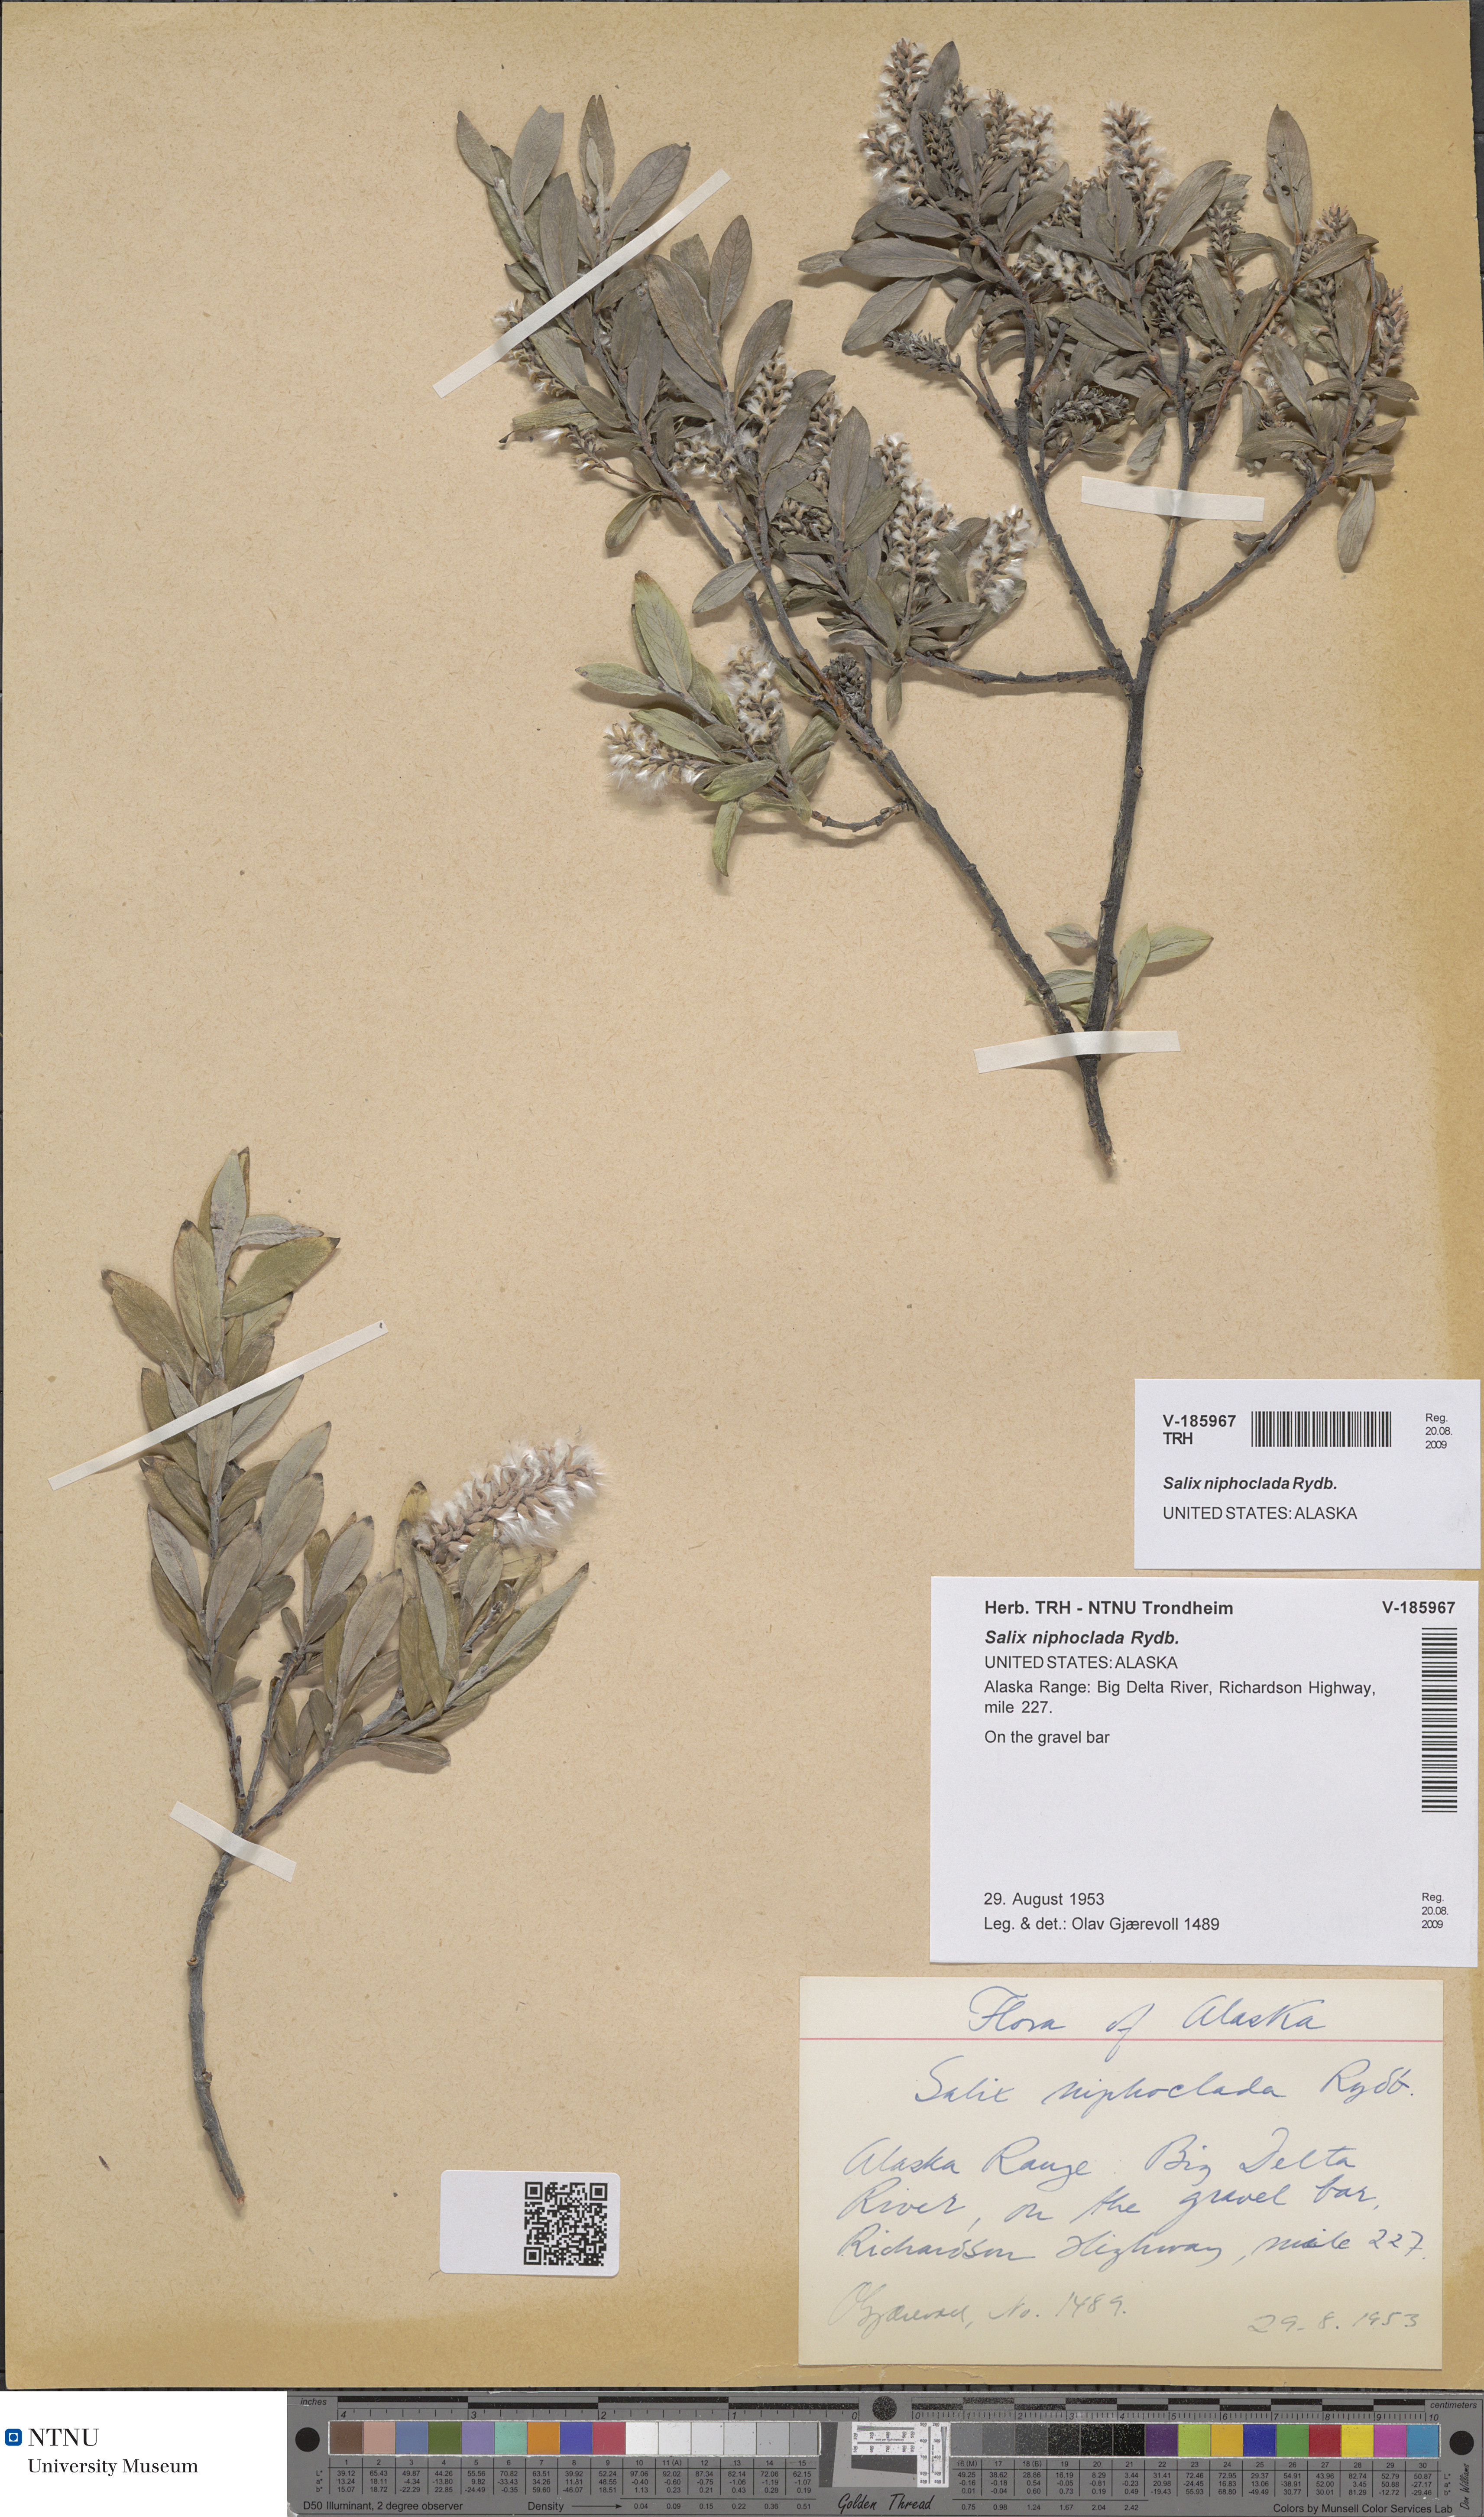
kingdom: Plantae
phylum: Tracheophyta
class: Magnoliopsida
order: Malpighiales
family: Salicaceae
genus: Salix
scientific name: Salix niphoclada
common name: Barren-ground willow
